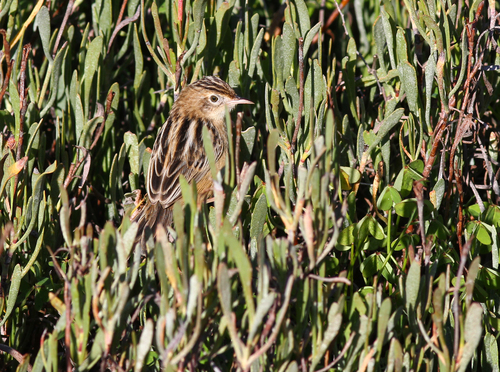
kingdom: Animalia
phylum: Chordata
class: Aves
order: Passeriformes
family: Cisticolidae
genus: Cisticola
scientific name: Cisticola juncidis
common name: Zitting cisticola
